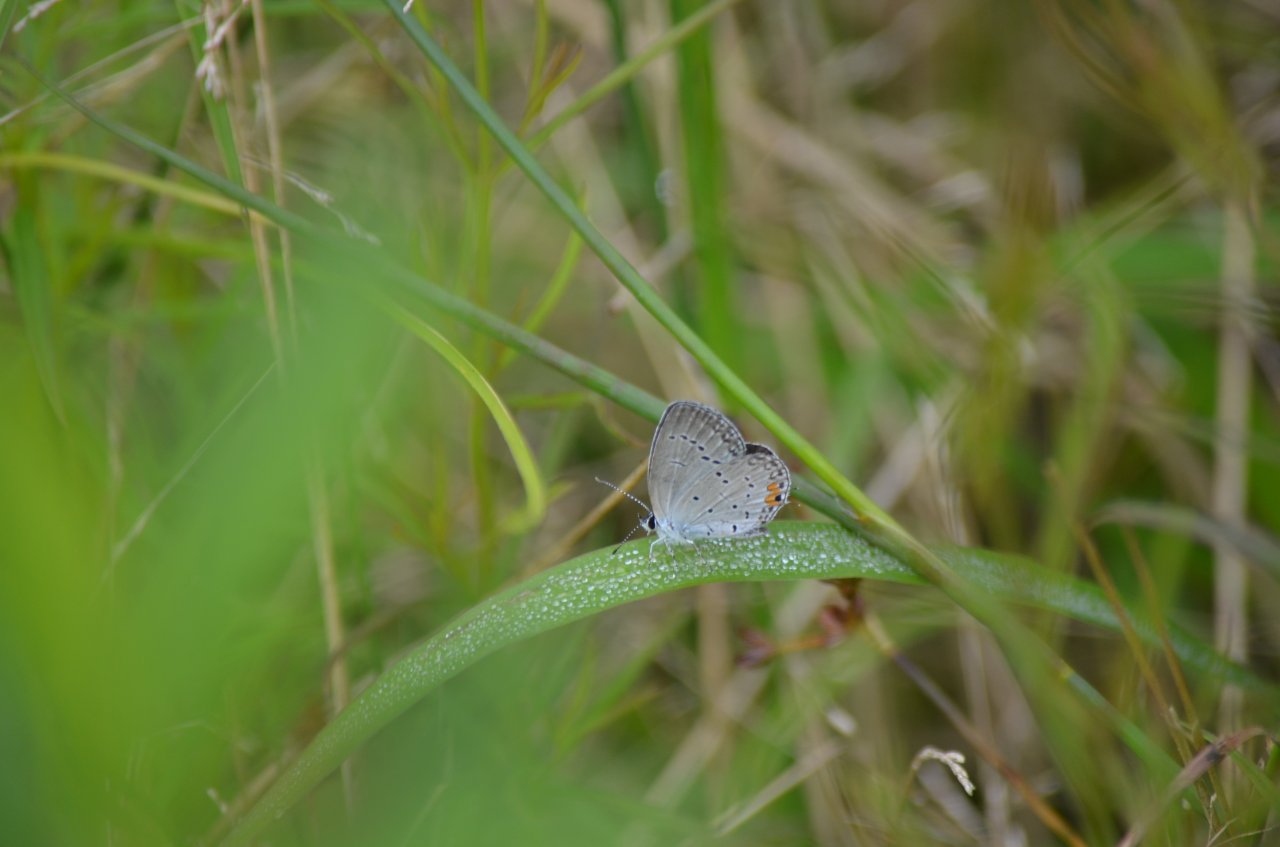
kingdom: Animalia
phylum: Arthropoda
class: Insecta
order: Lepidoptera
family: Lycaenidae
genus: Elkalyce
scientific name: Elkalyce comyntas
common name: Eastern Tailed-Blue
